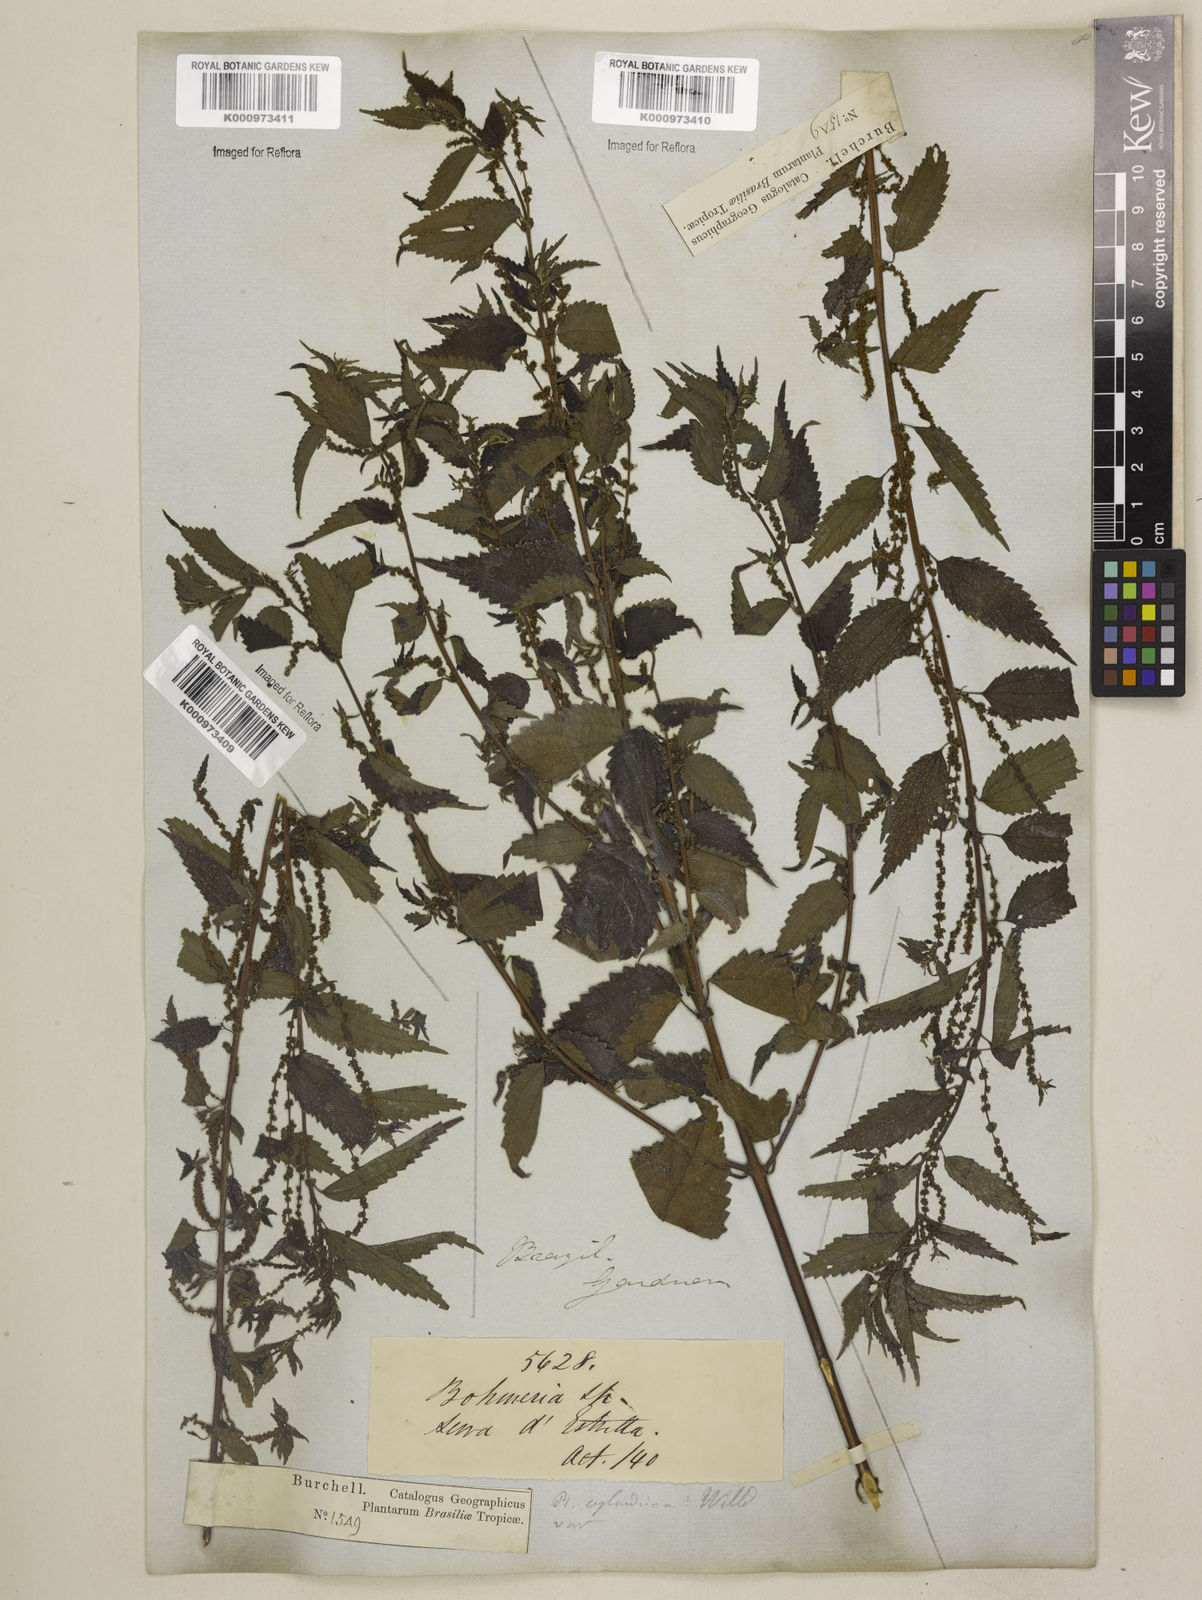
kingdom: Plantae
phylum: Tracheophyta
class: Magnoliopsida
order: Rosales
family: Urticaceae
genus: Boehmeria
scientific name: Boehmeria cylindrica
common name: Bog-hemp
